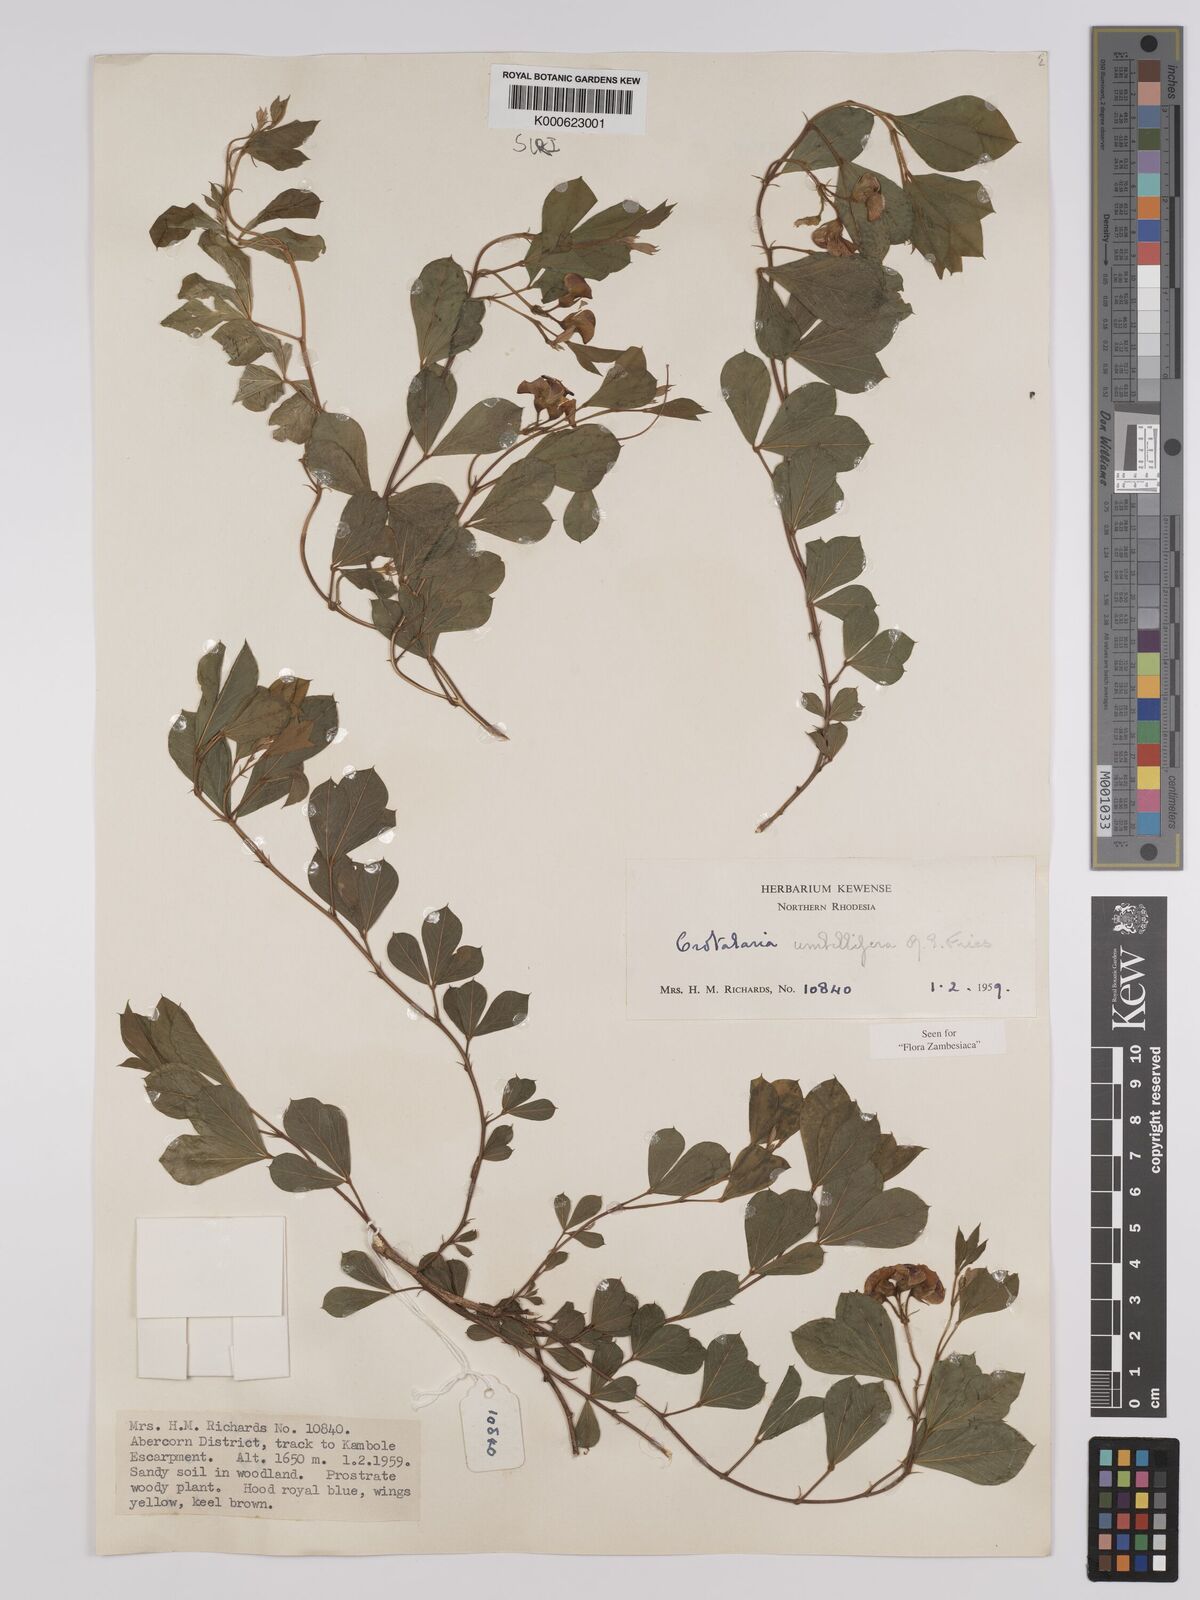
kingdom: Plantae
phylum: Tracheophyta
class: Magnoliopsida
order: Fabales
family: Fabaceae
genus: Crotalaria
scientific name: Crotalaria umbellifera
